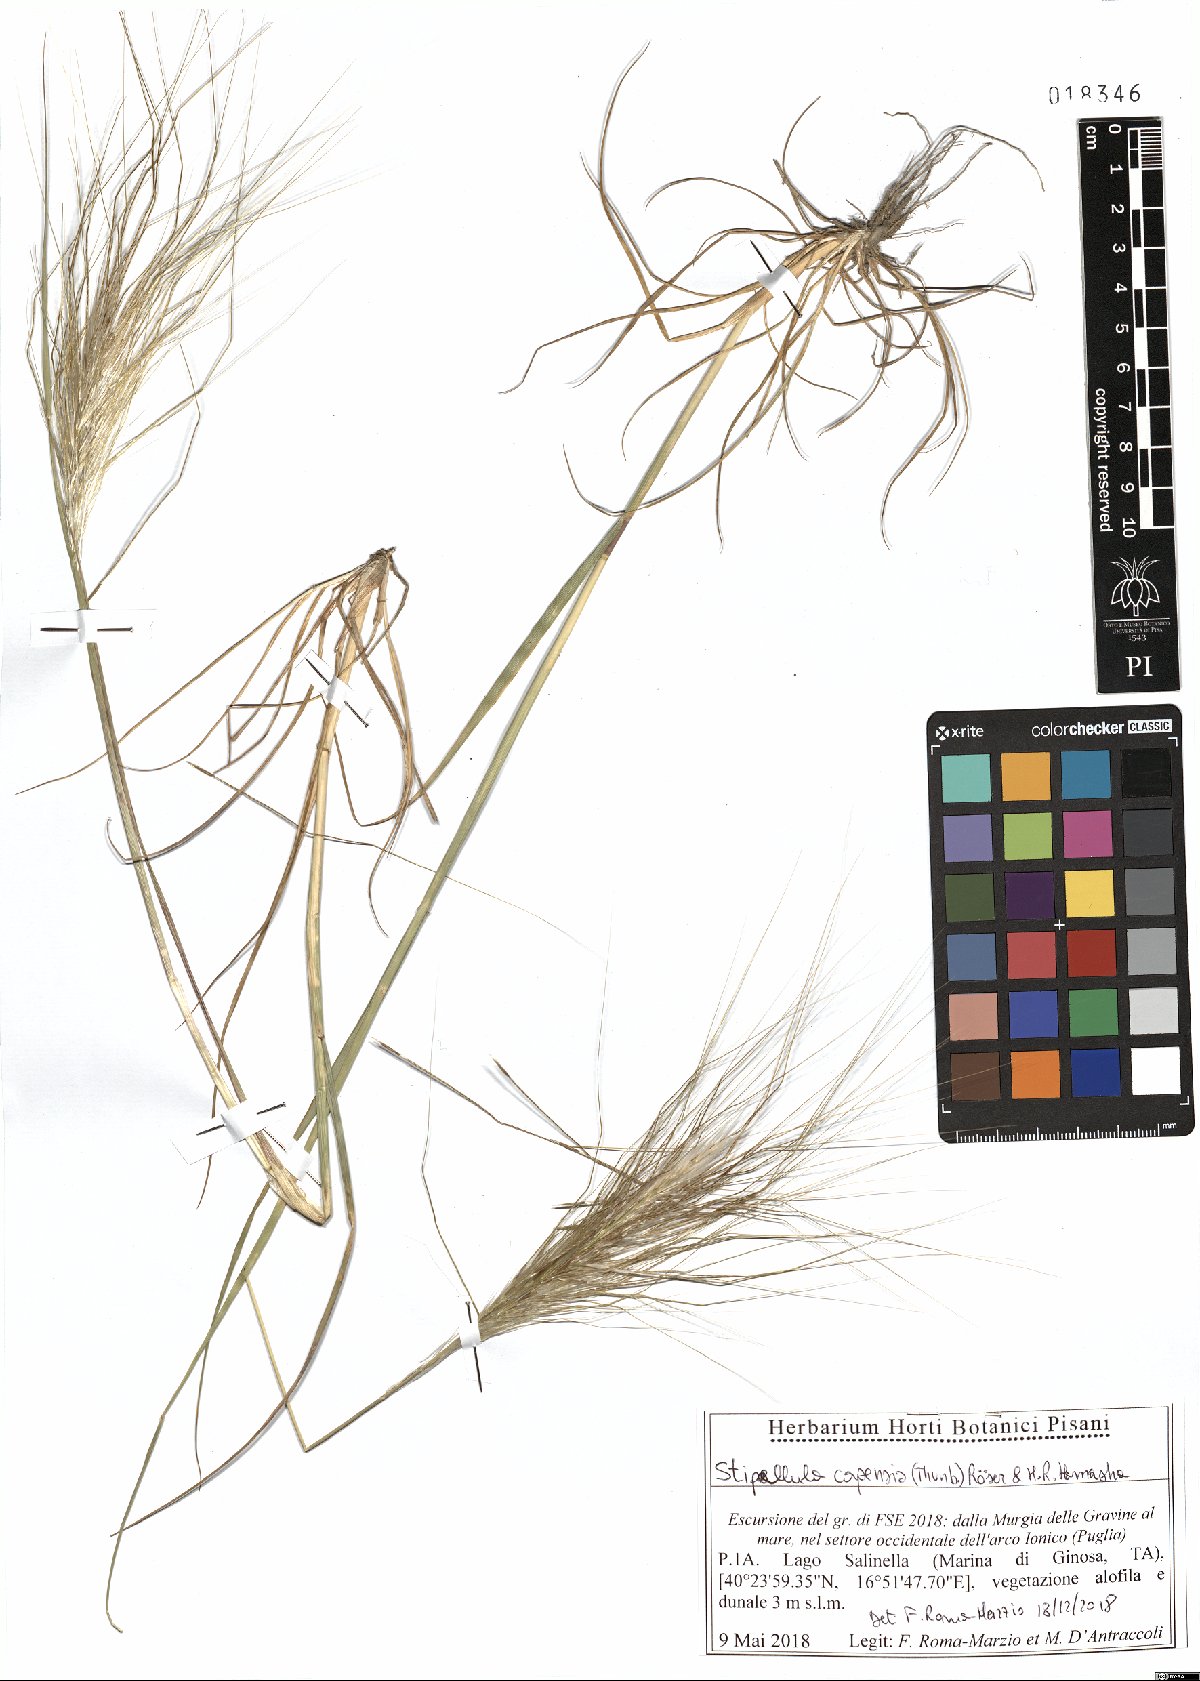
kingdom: Plantae
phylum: Tracheophyta
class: Liliopsida
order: Poales
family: Poaceae
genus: Stipellula
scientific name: Stipellula capensis
